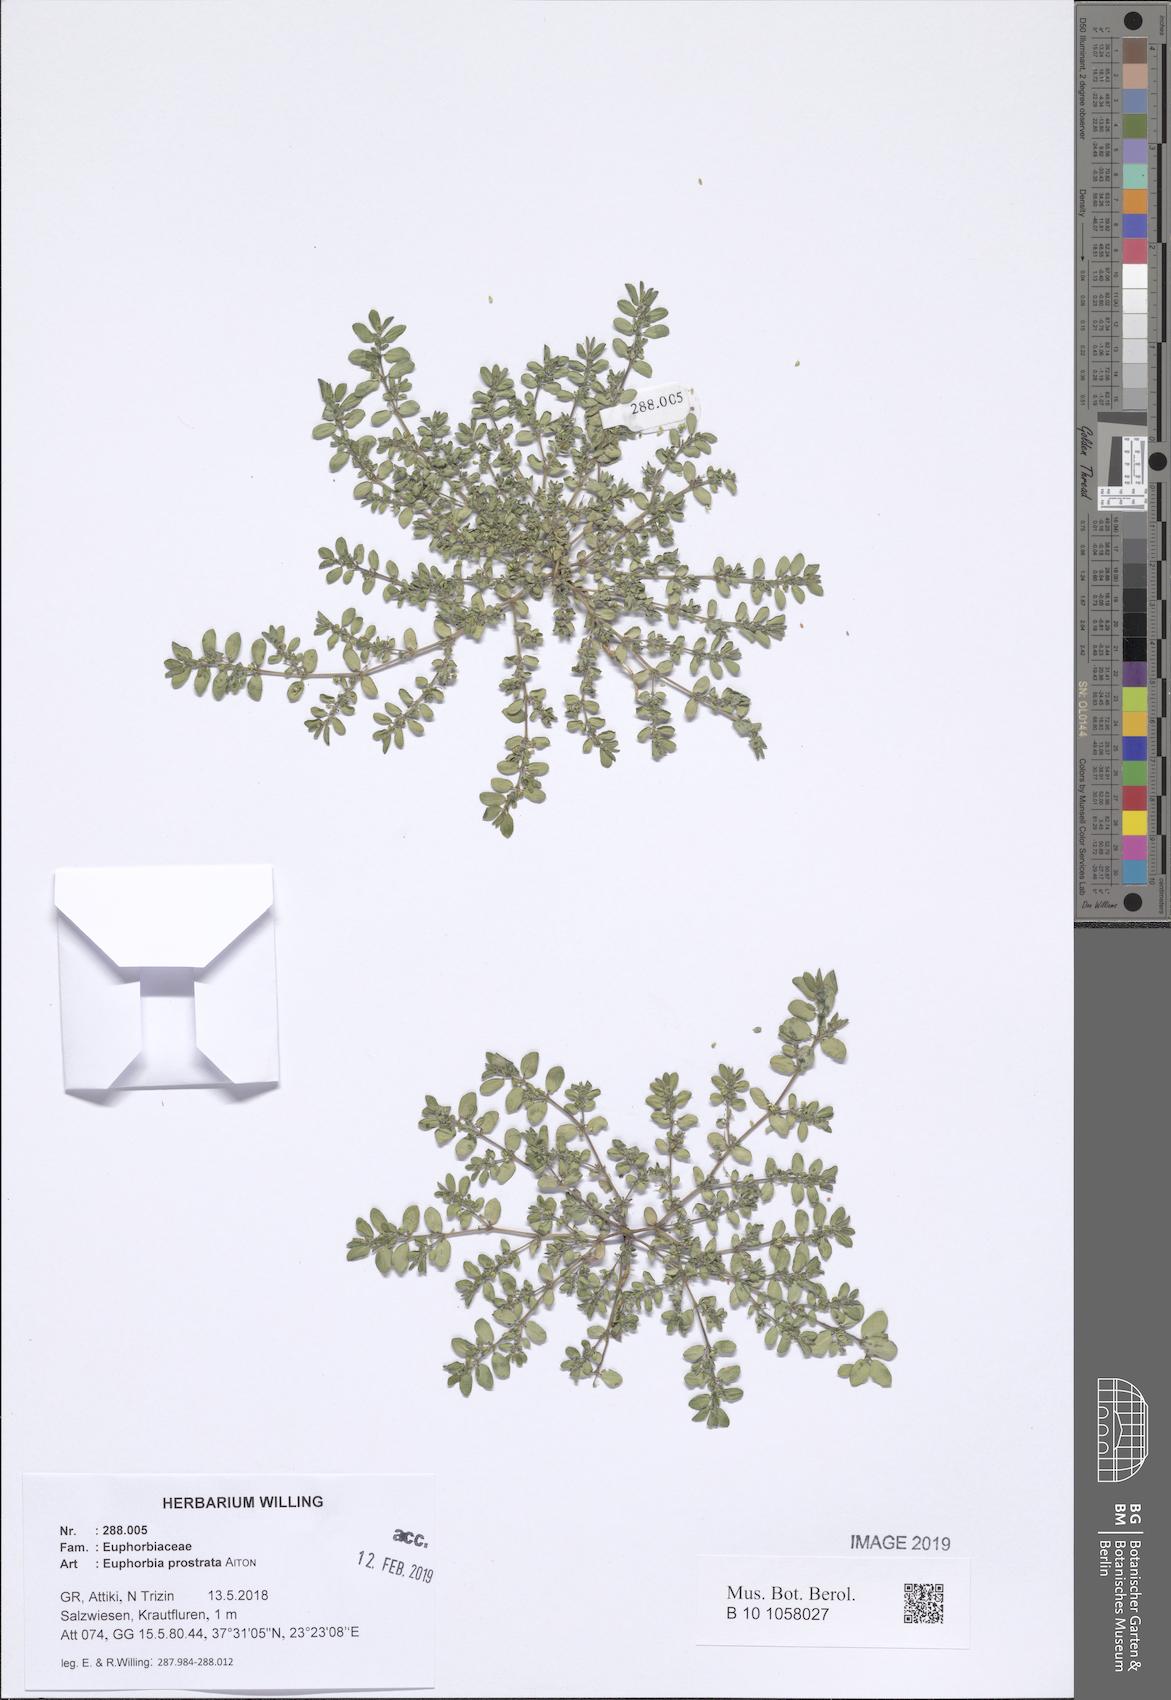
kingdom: Plantae
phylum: Tracheophyta
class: Magnoliopsida
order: Malpighiales
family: Euphorbiaceae
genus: Euphorbia
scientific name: Euphorbia prostrata
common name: Prostrate sandmat
